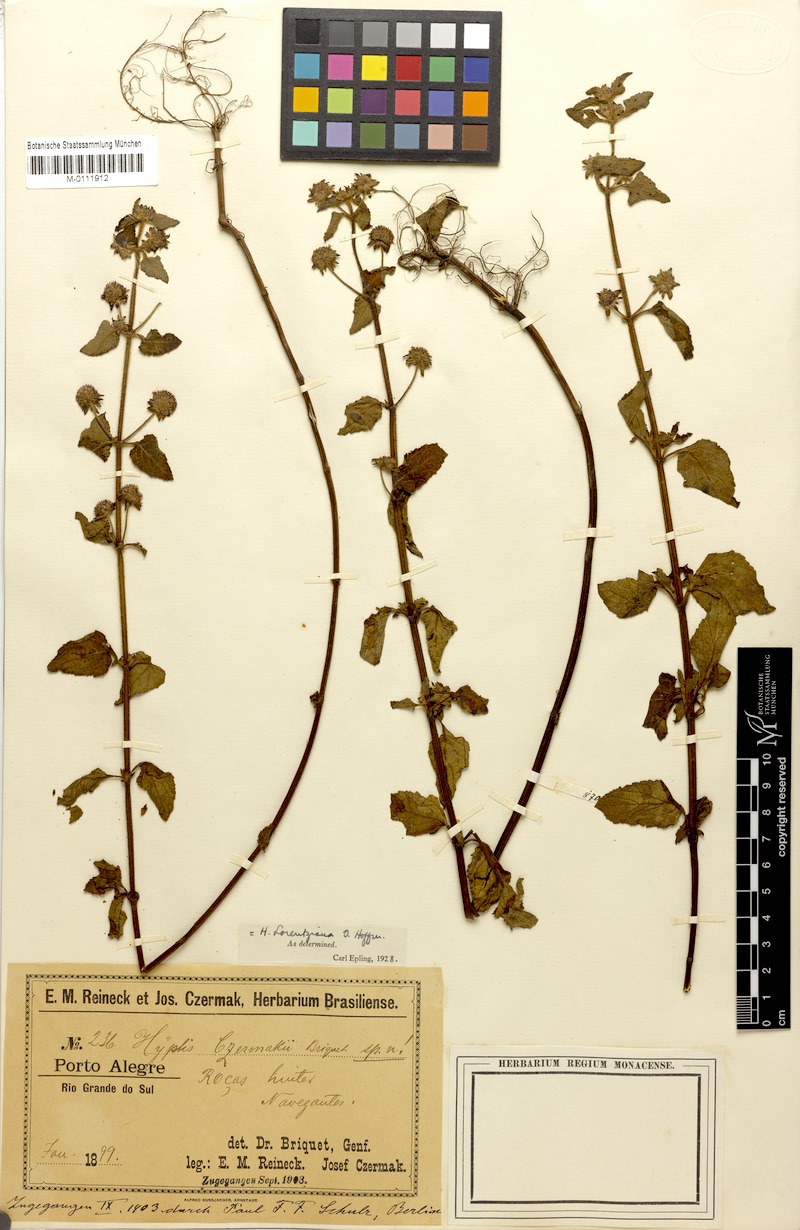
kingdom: Plantae
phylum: Tracheophyta
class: Magnoliopsida
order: Lamiales
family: Lamiaceae
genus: Hyptis
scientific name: Hyptis lorentziana
